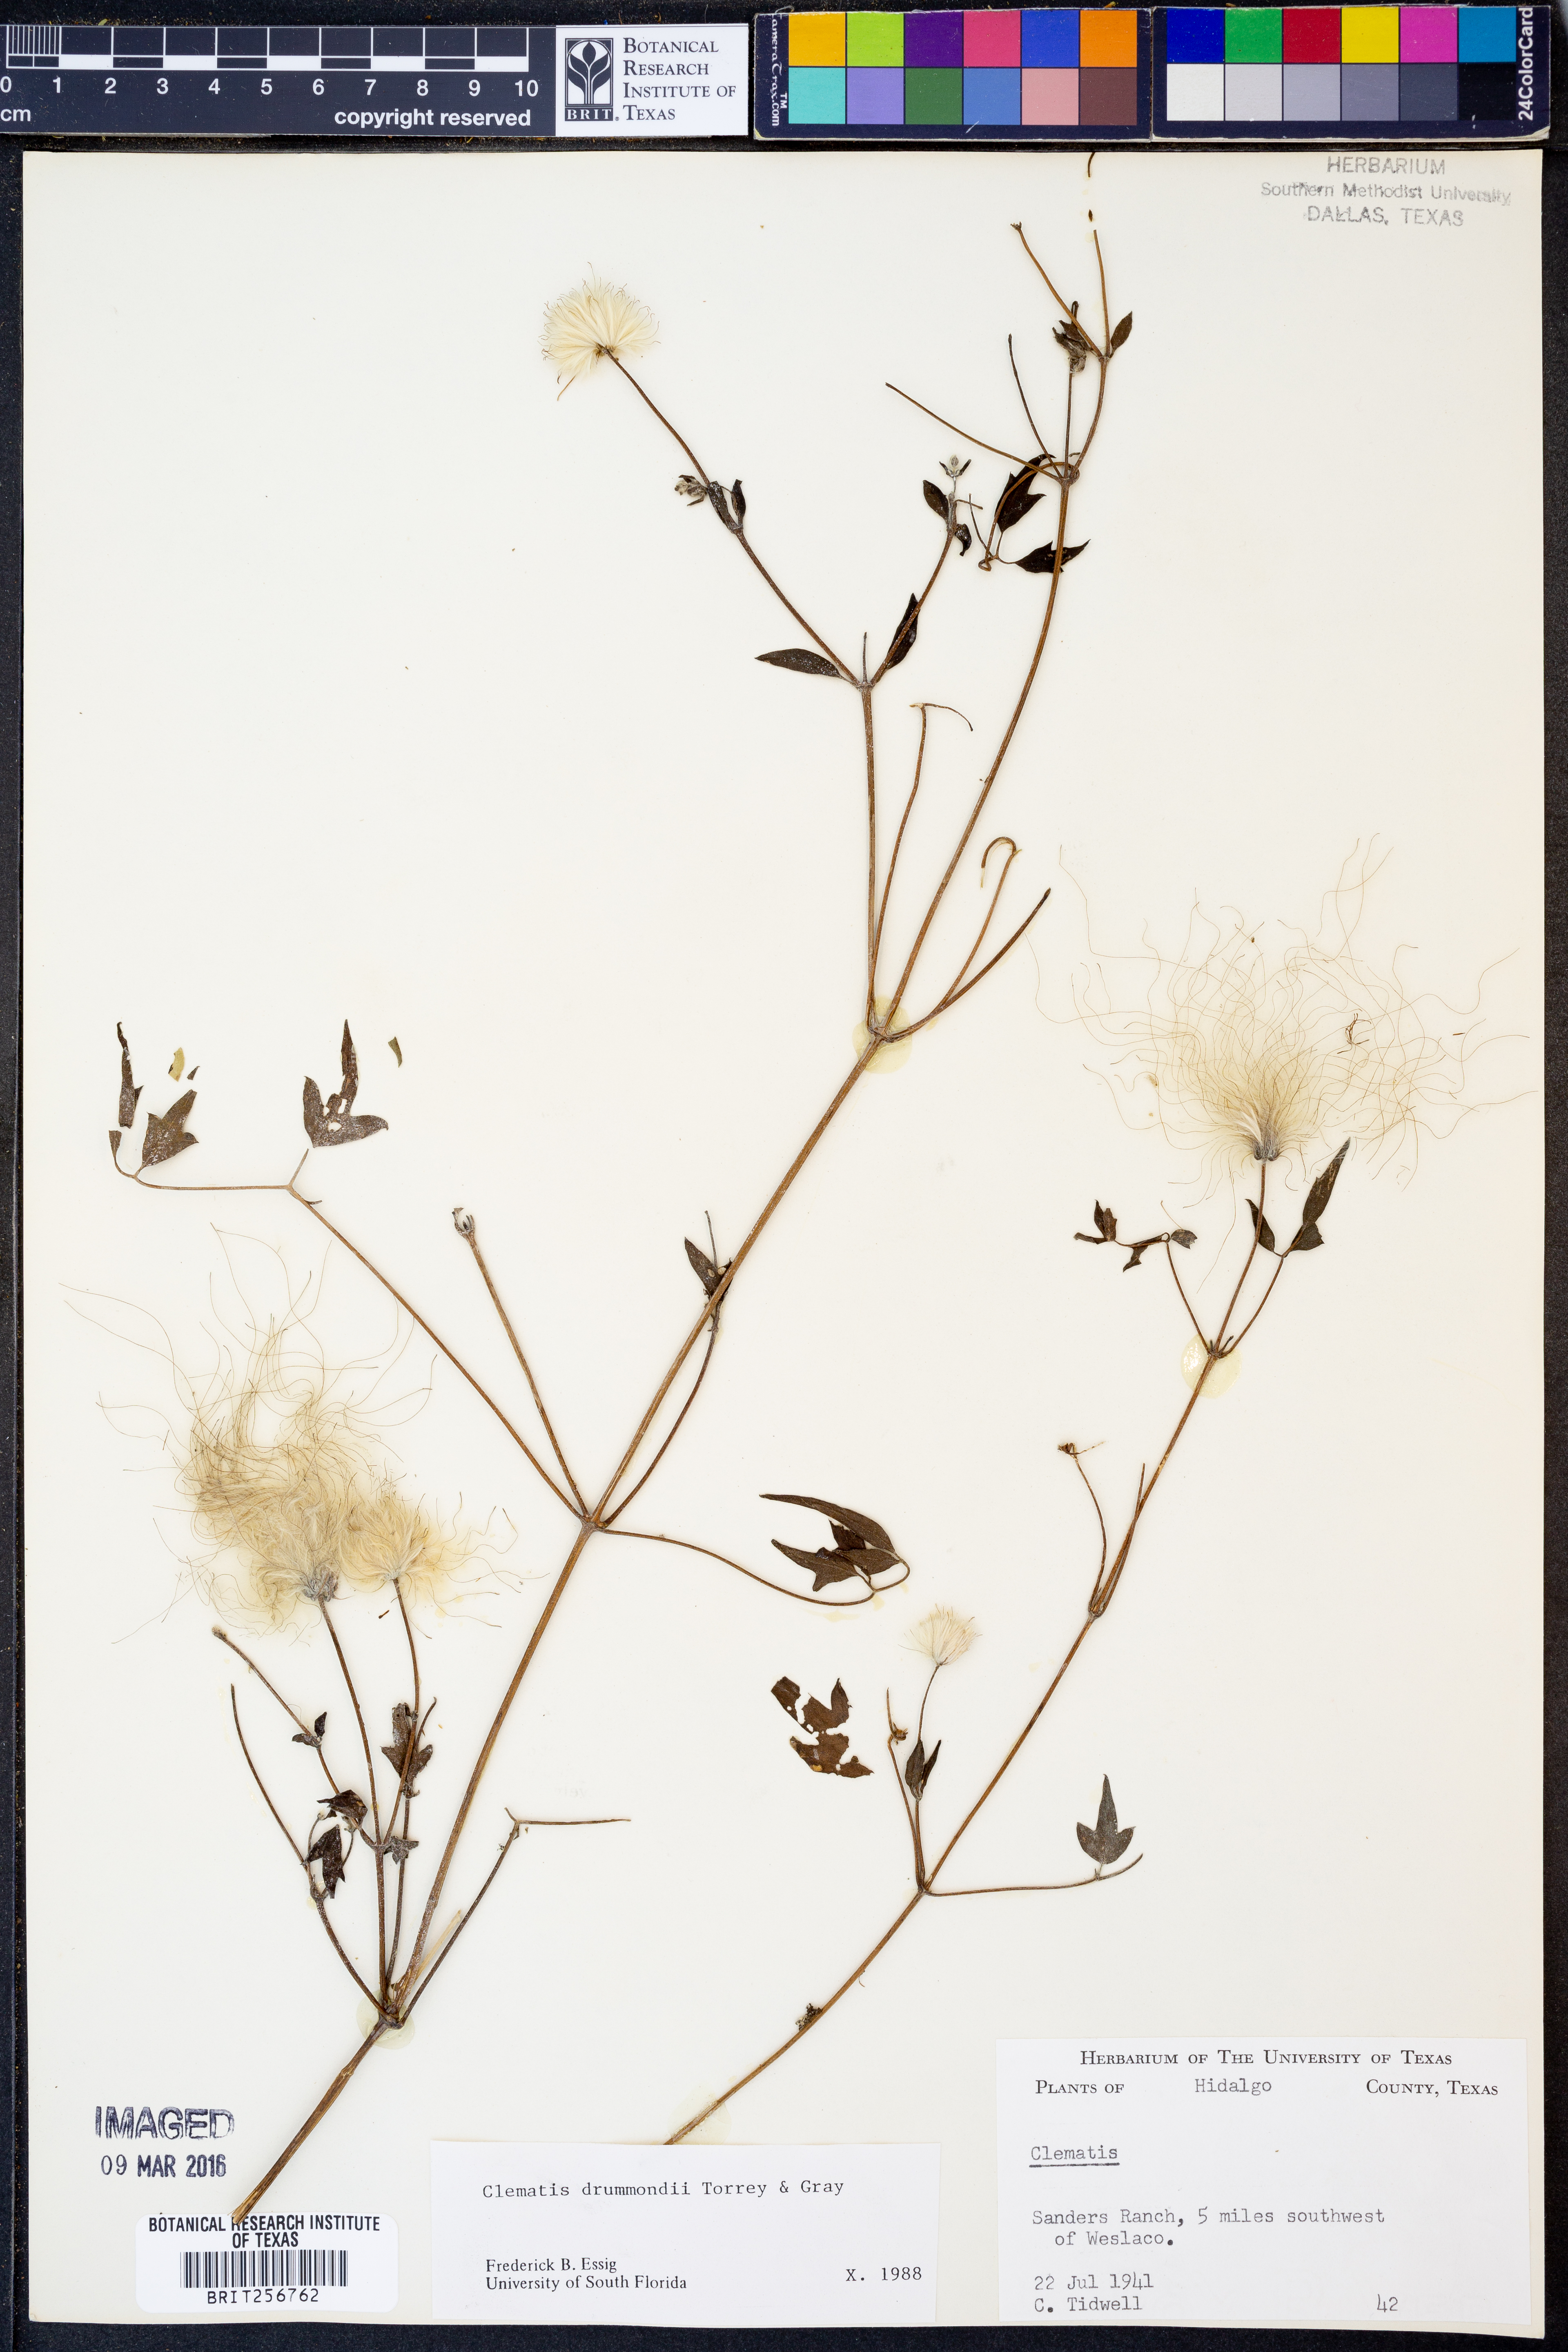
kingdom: Plantae
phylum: Tracheophyta
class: Magnoliopsida
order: Ranunculales
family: Ranunculaceae
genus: Clematis
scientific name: Clematis drummondii
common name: Texas virgin's bower
